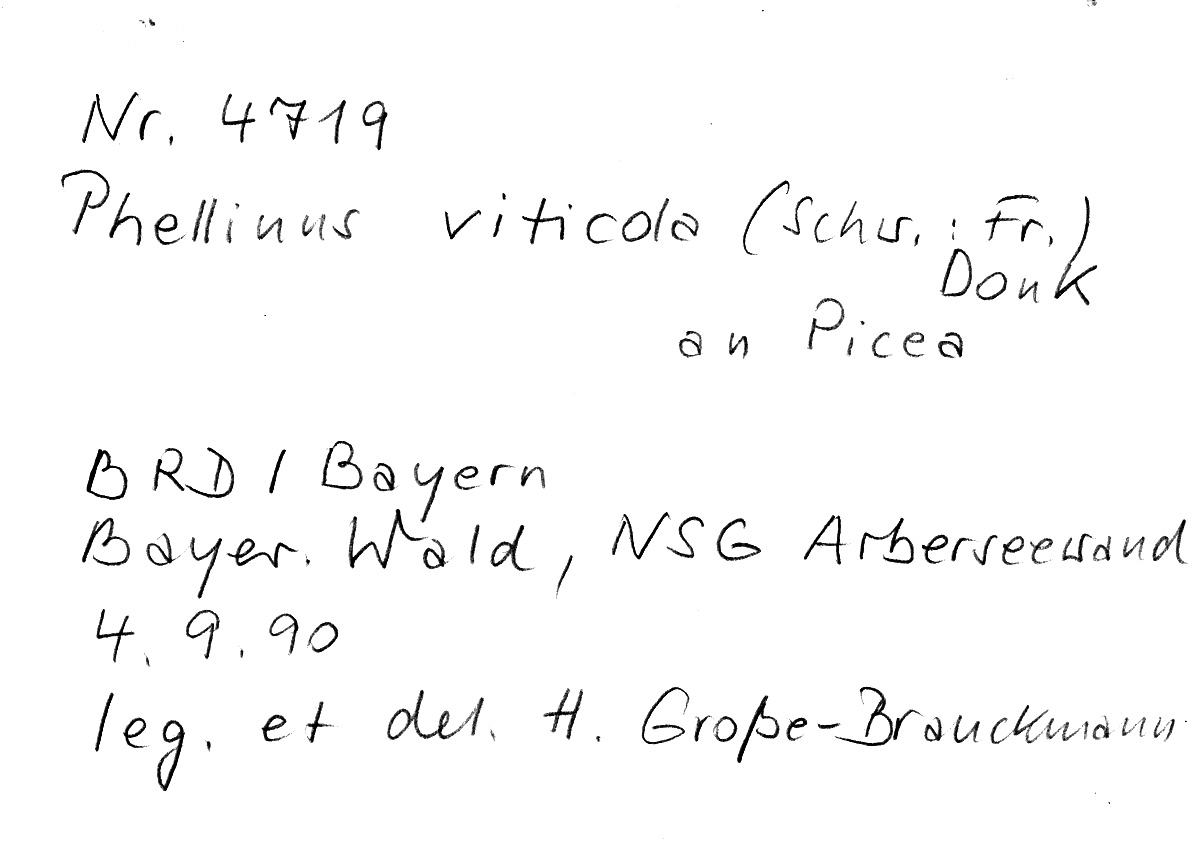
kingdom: Plantae
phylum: Tracheophyta
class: Pinopsida
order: Pinales
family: Pinaceae
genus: Picea
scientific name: Picea
